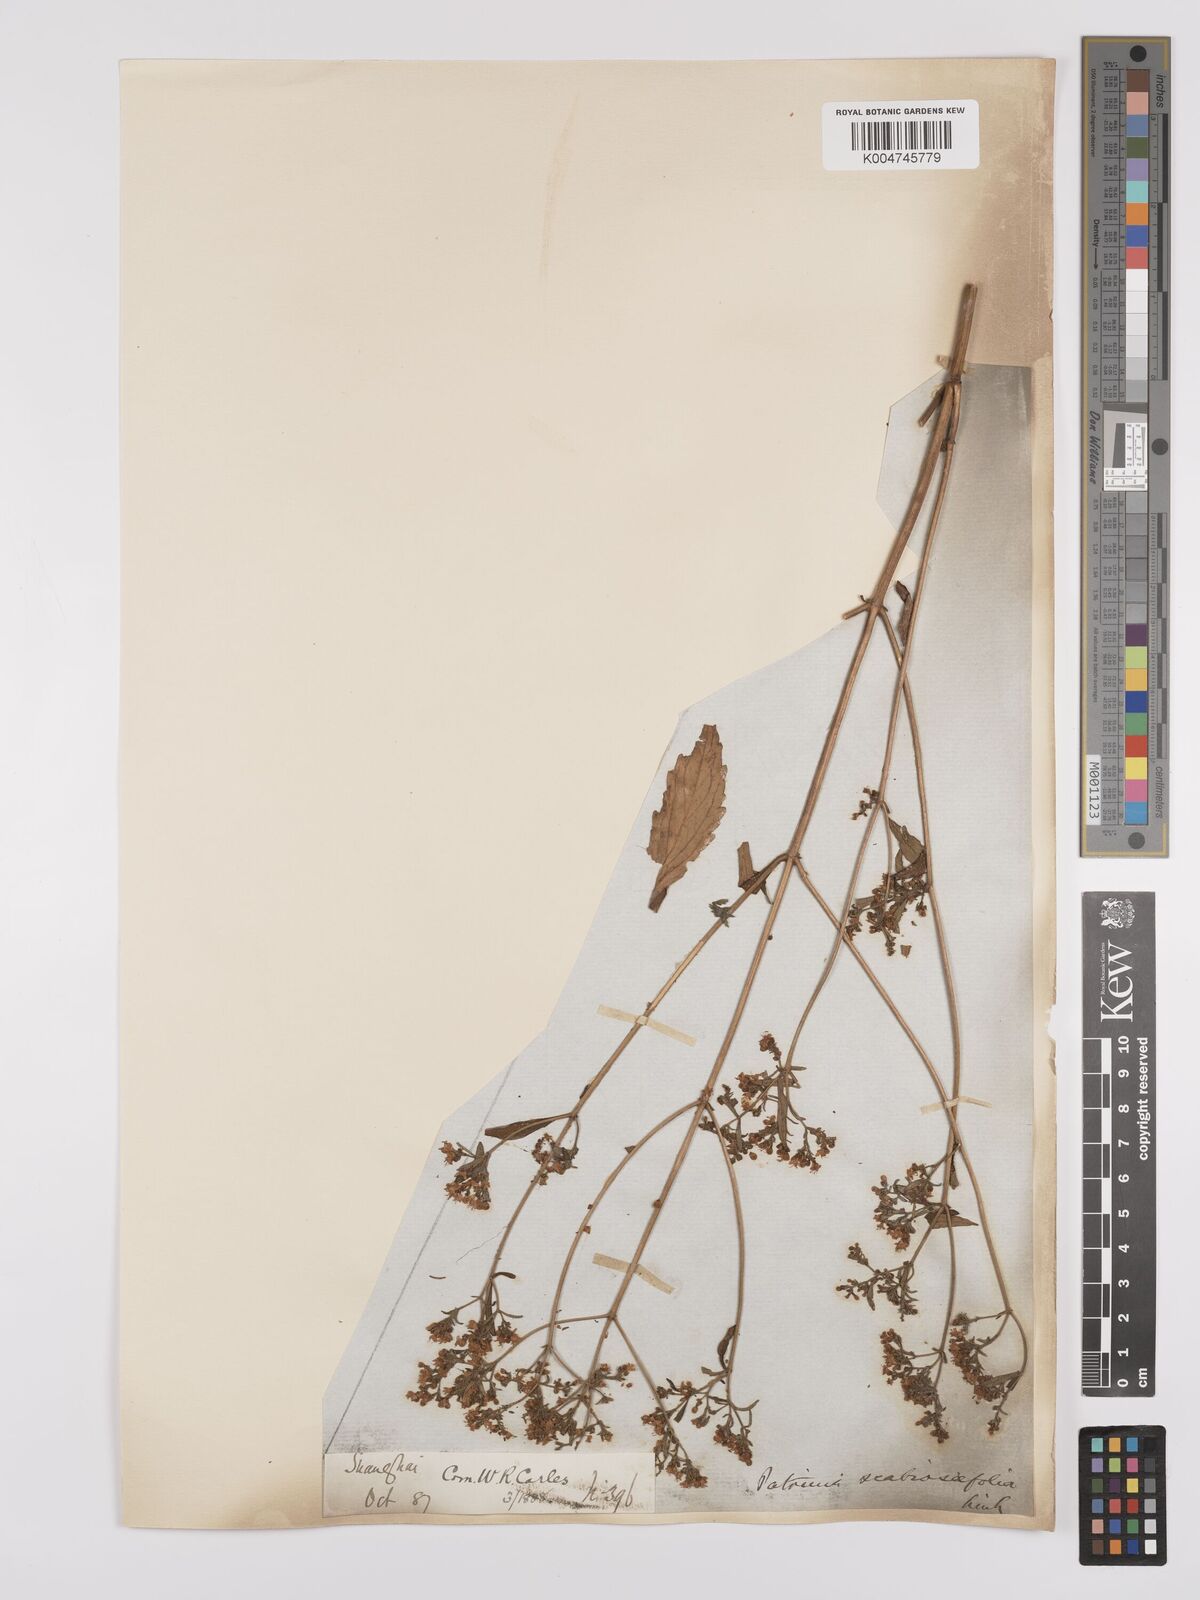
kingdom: Plantae
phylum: Tracheophyta
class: Magnoliopsida
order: Dipsacales
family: Caprifoliaceae
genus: Patrinia
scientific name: Patrinia
